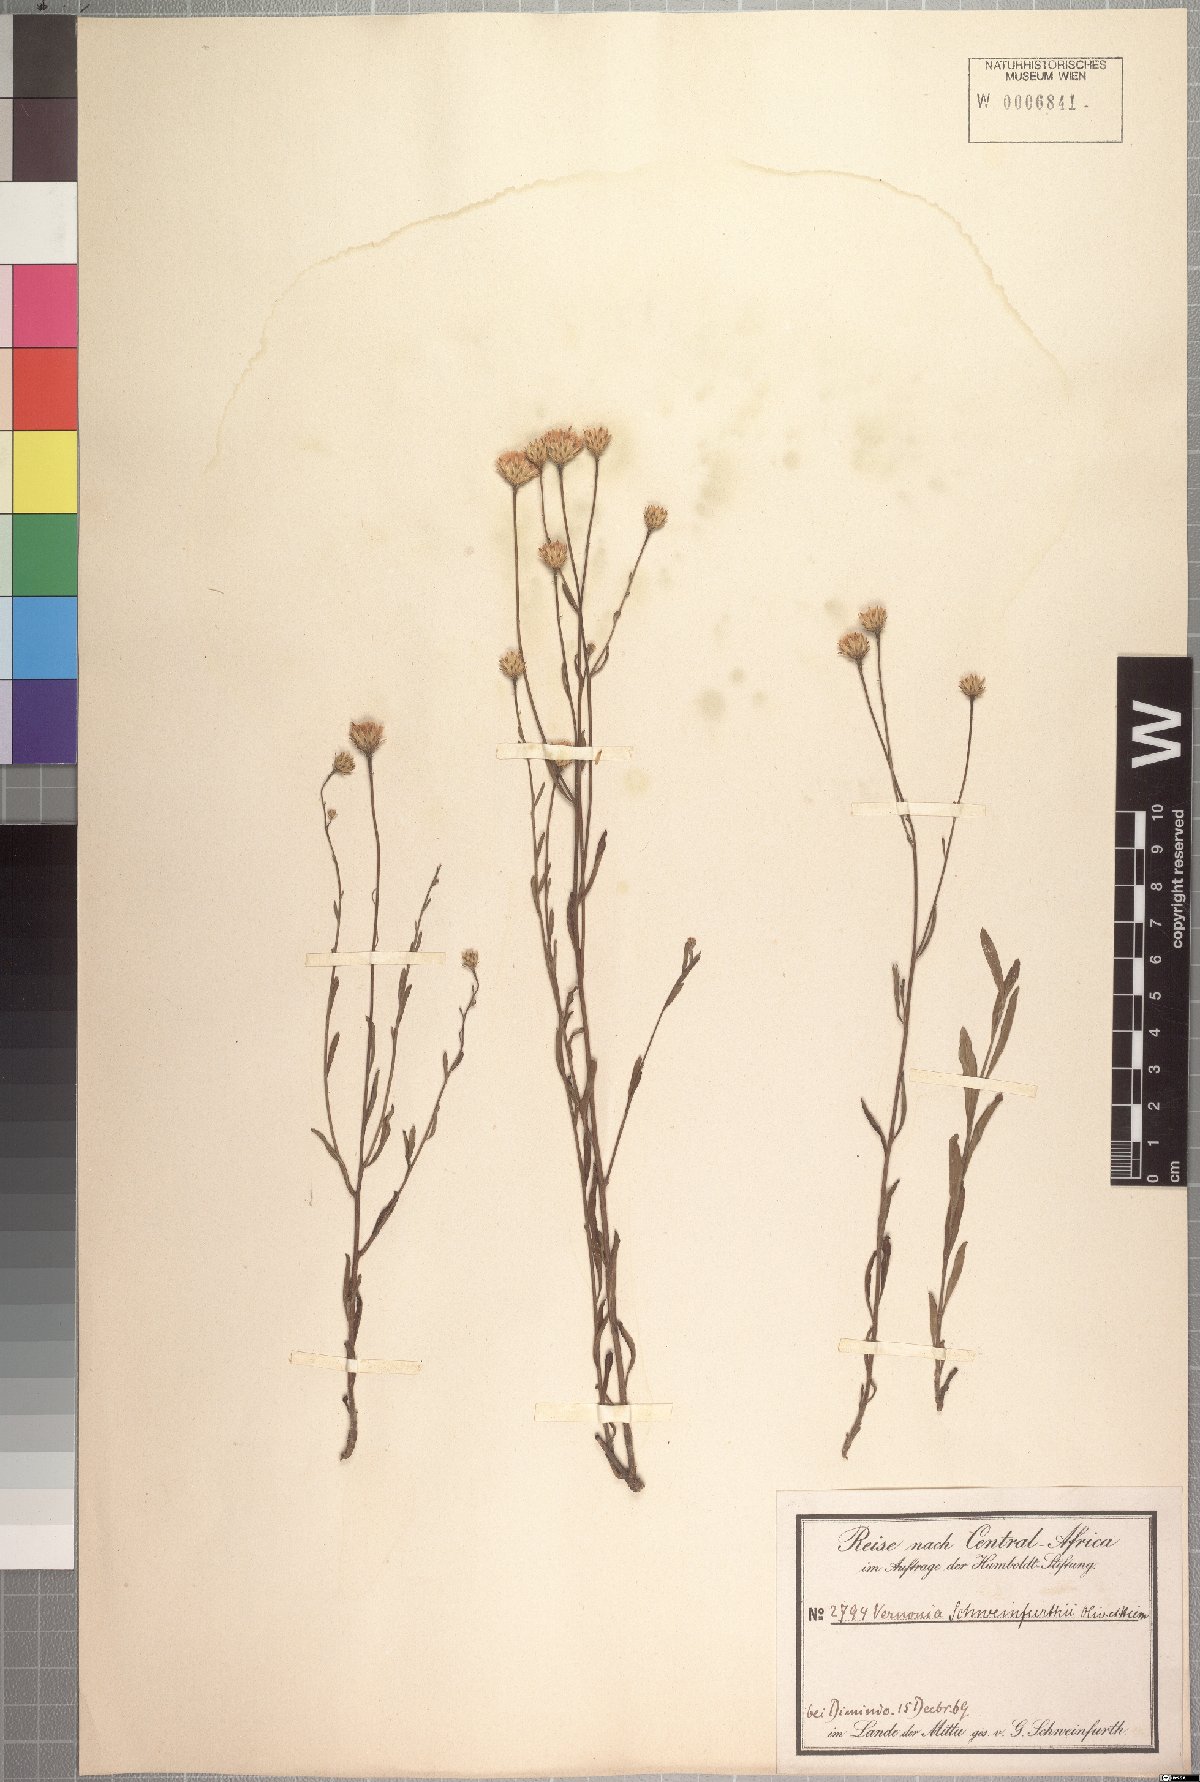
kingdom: Plantae
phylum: Tracheophyta
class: Magnoliopsida
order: Asterales
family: Asteraceae
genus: Vernonia
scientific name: Vernonia schweinfurthii
